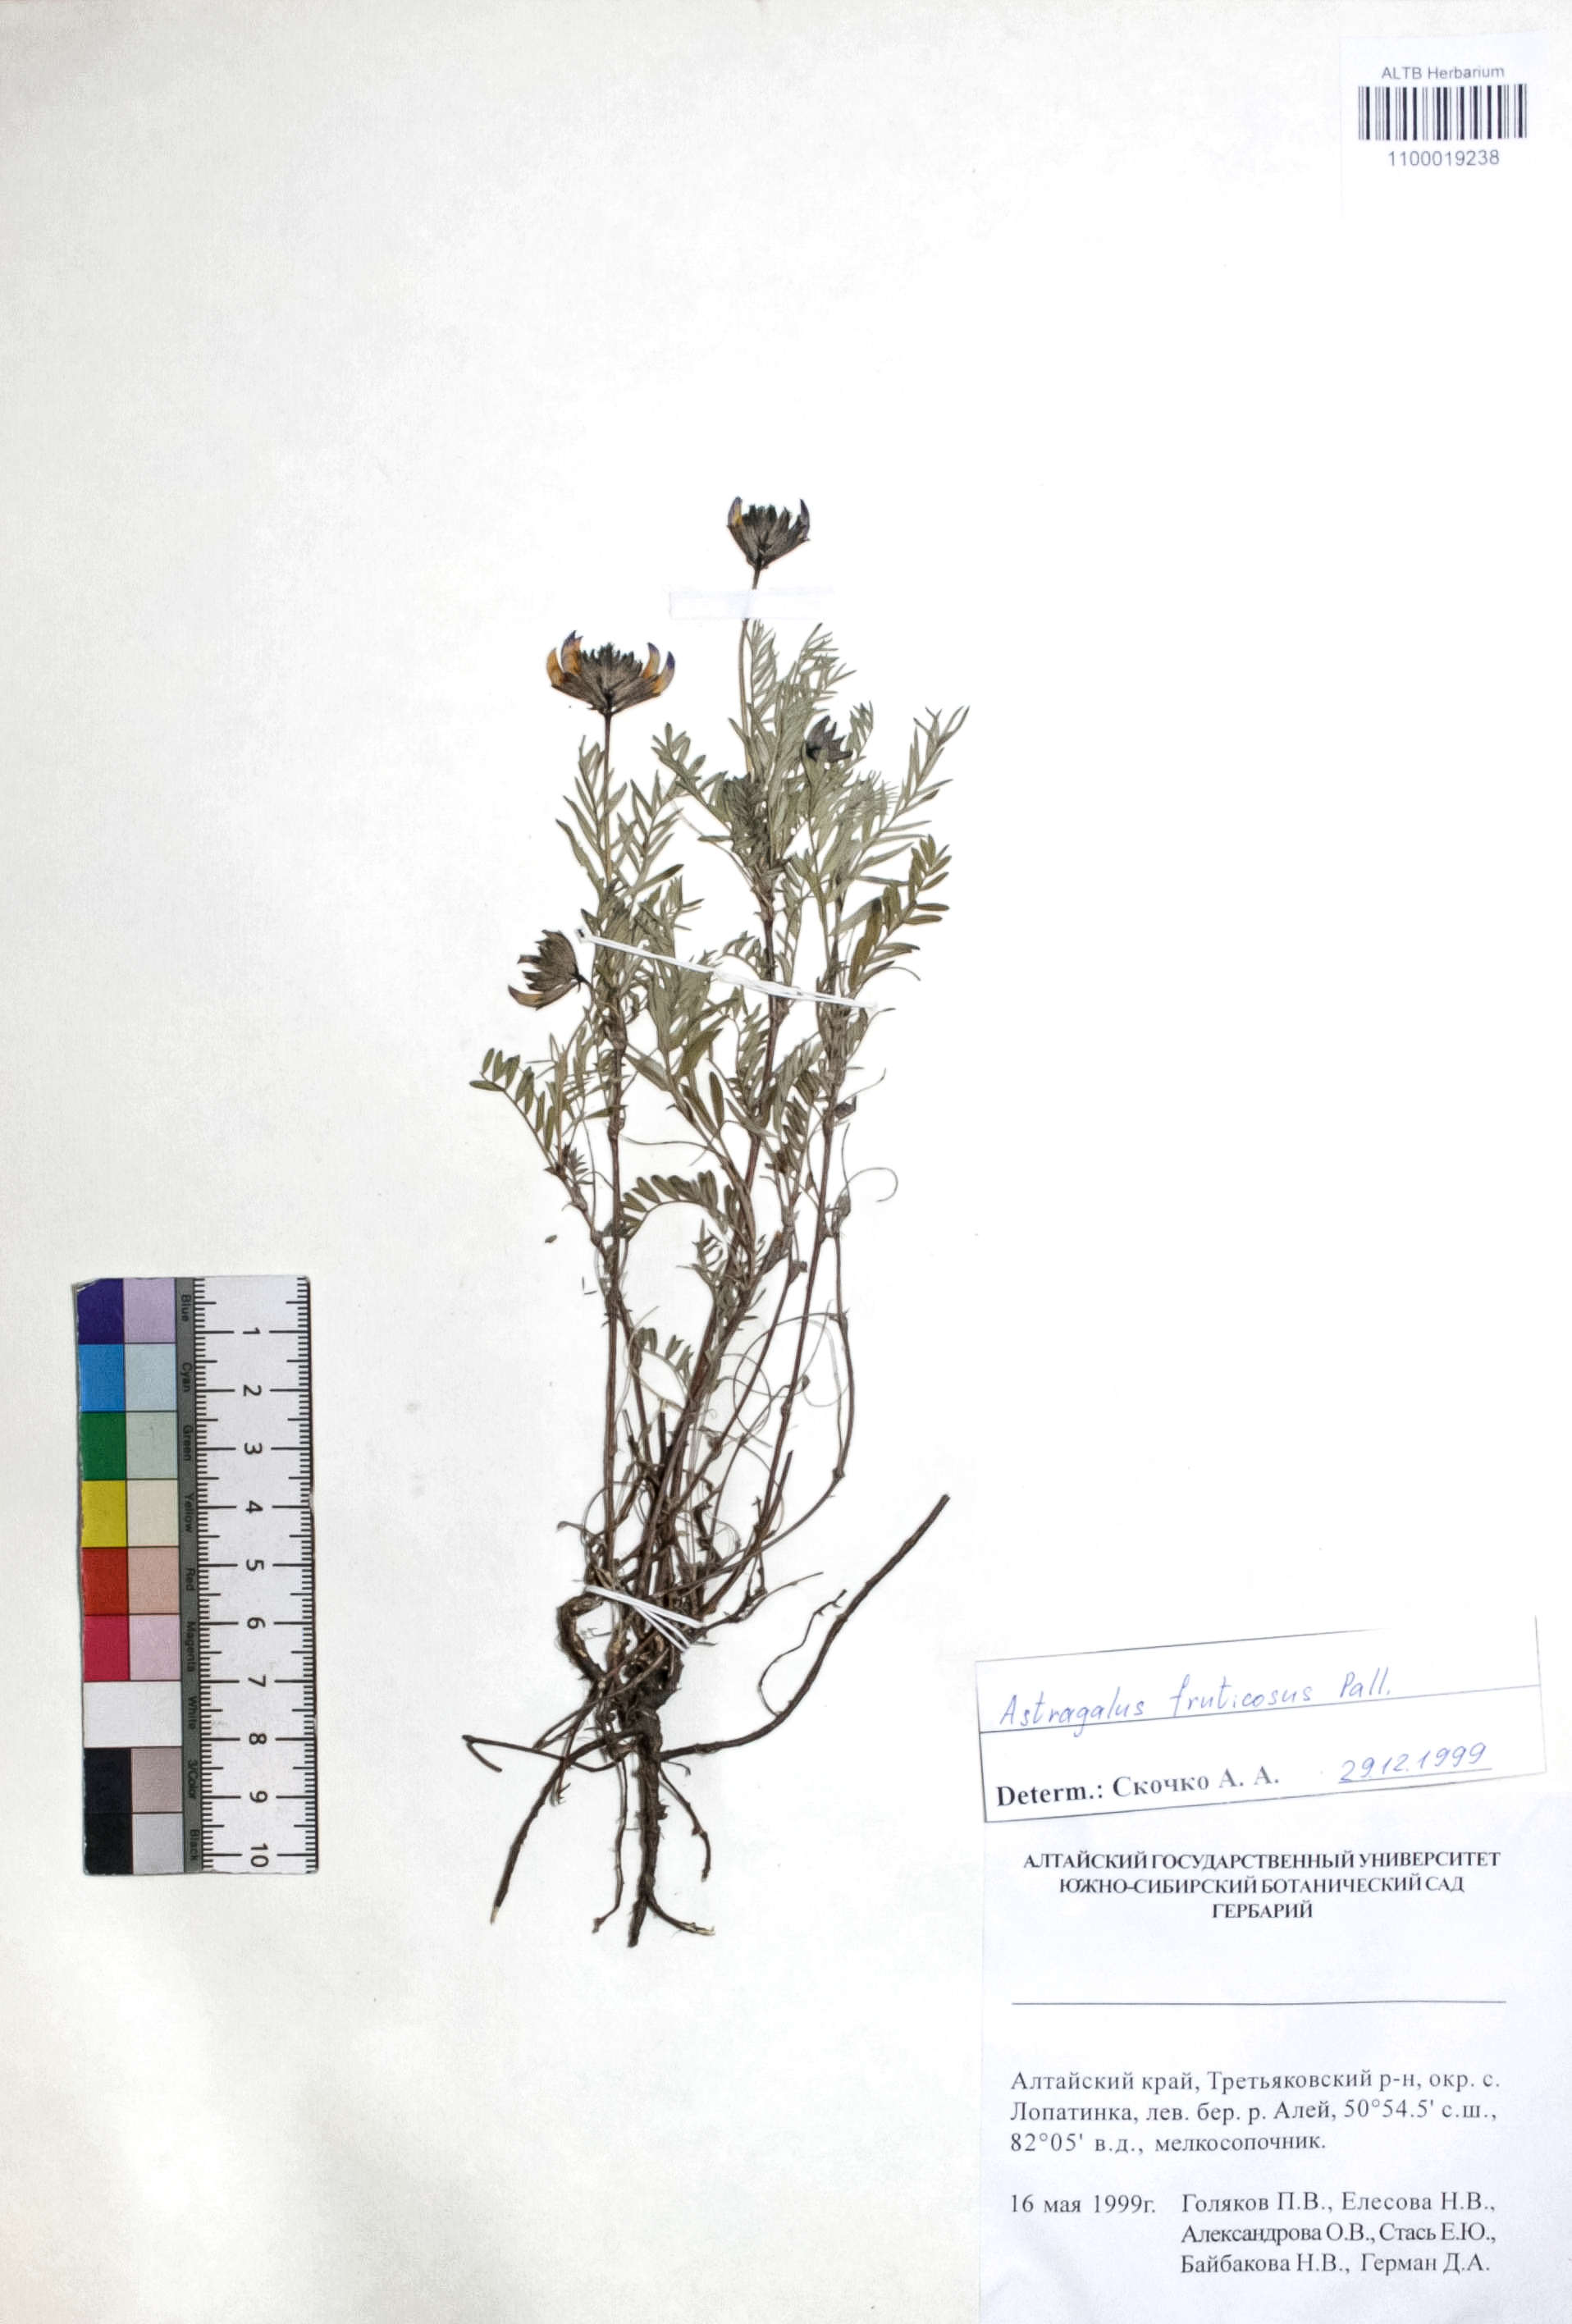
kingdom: Plantae
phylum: Tracheophyta
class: Magnoliopsida
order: Fabales
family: Fabaceae
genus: Astragalus
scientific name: Astragalus syriacus
